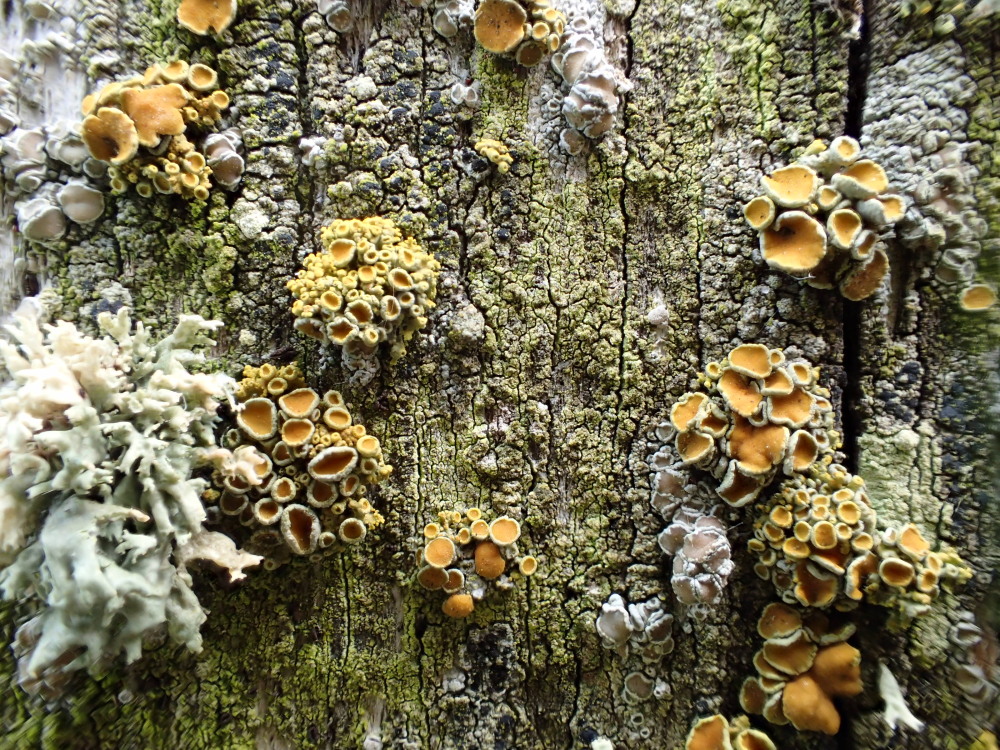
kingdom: Fungi
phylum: Ascomycota
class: Lecanoromycetes
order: Teloschistales
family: Teloschistaceae
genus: Polycauliona
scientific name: Polycauliona polycarpa
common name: mangefrugtet orangelav
